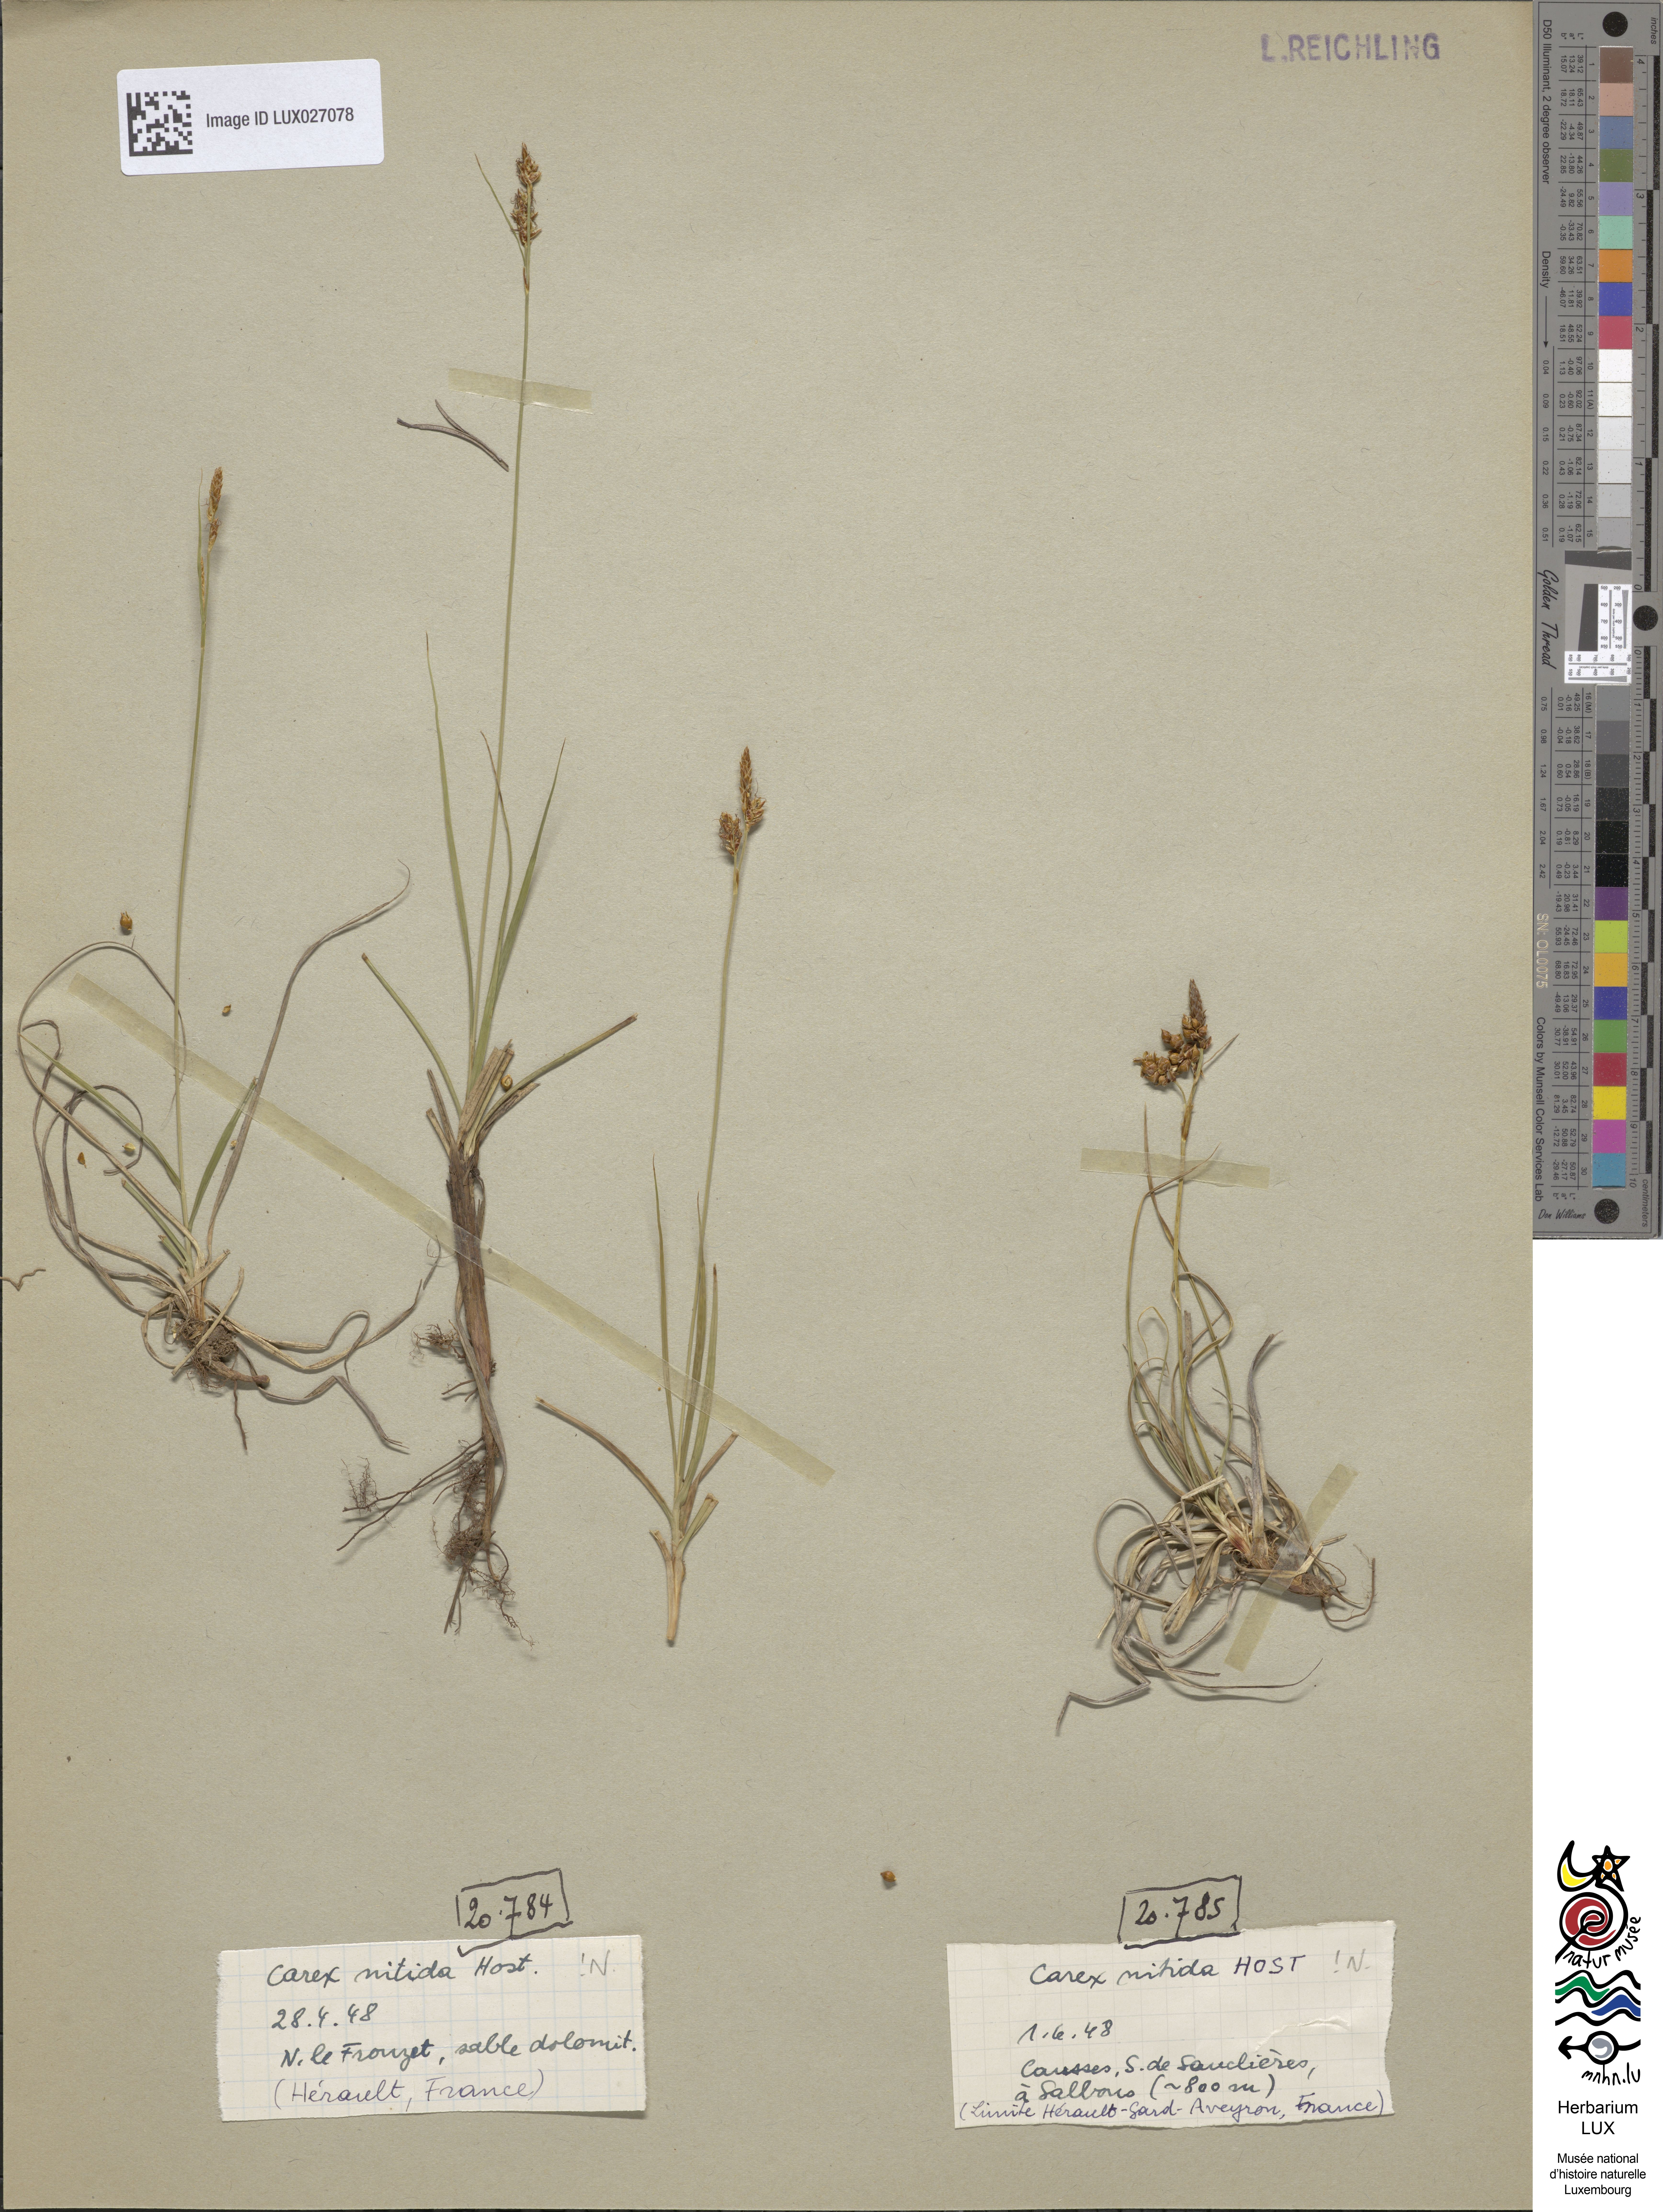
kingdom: Plantae
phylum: Tracheophyta
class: Liliopsida
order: Poales
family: Cyperaceae
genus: Carex
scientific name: Carex liparocarpos
